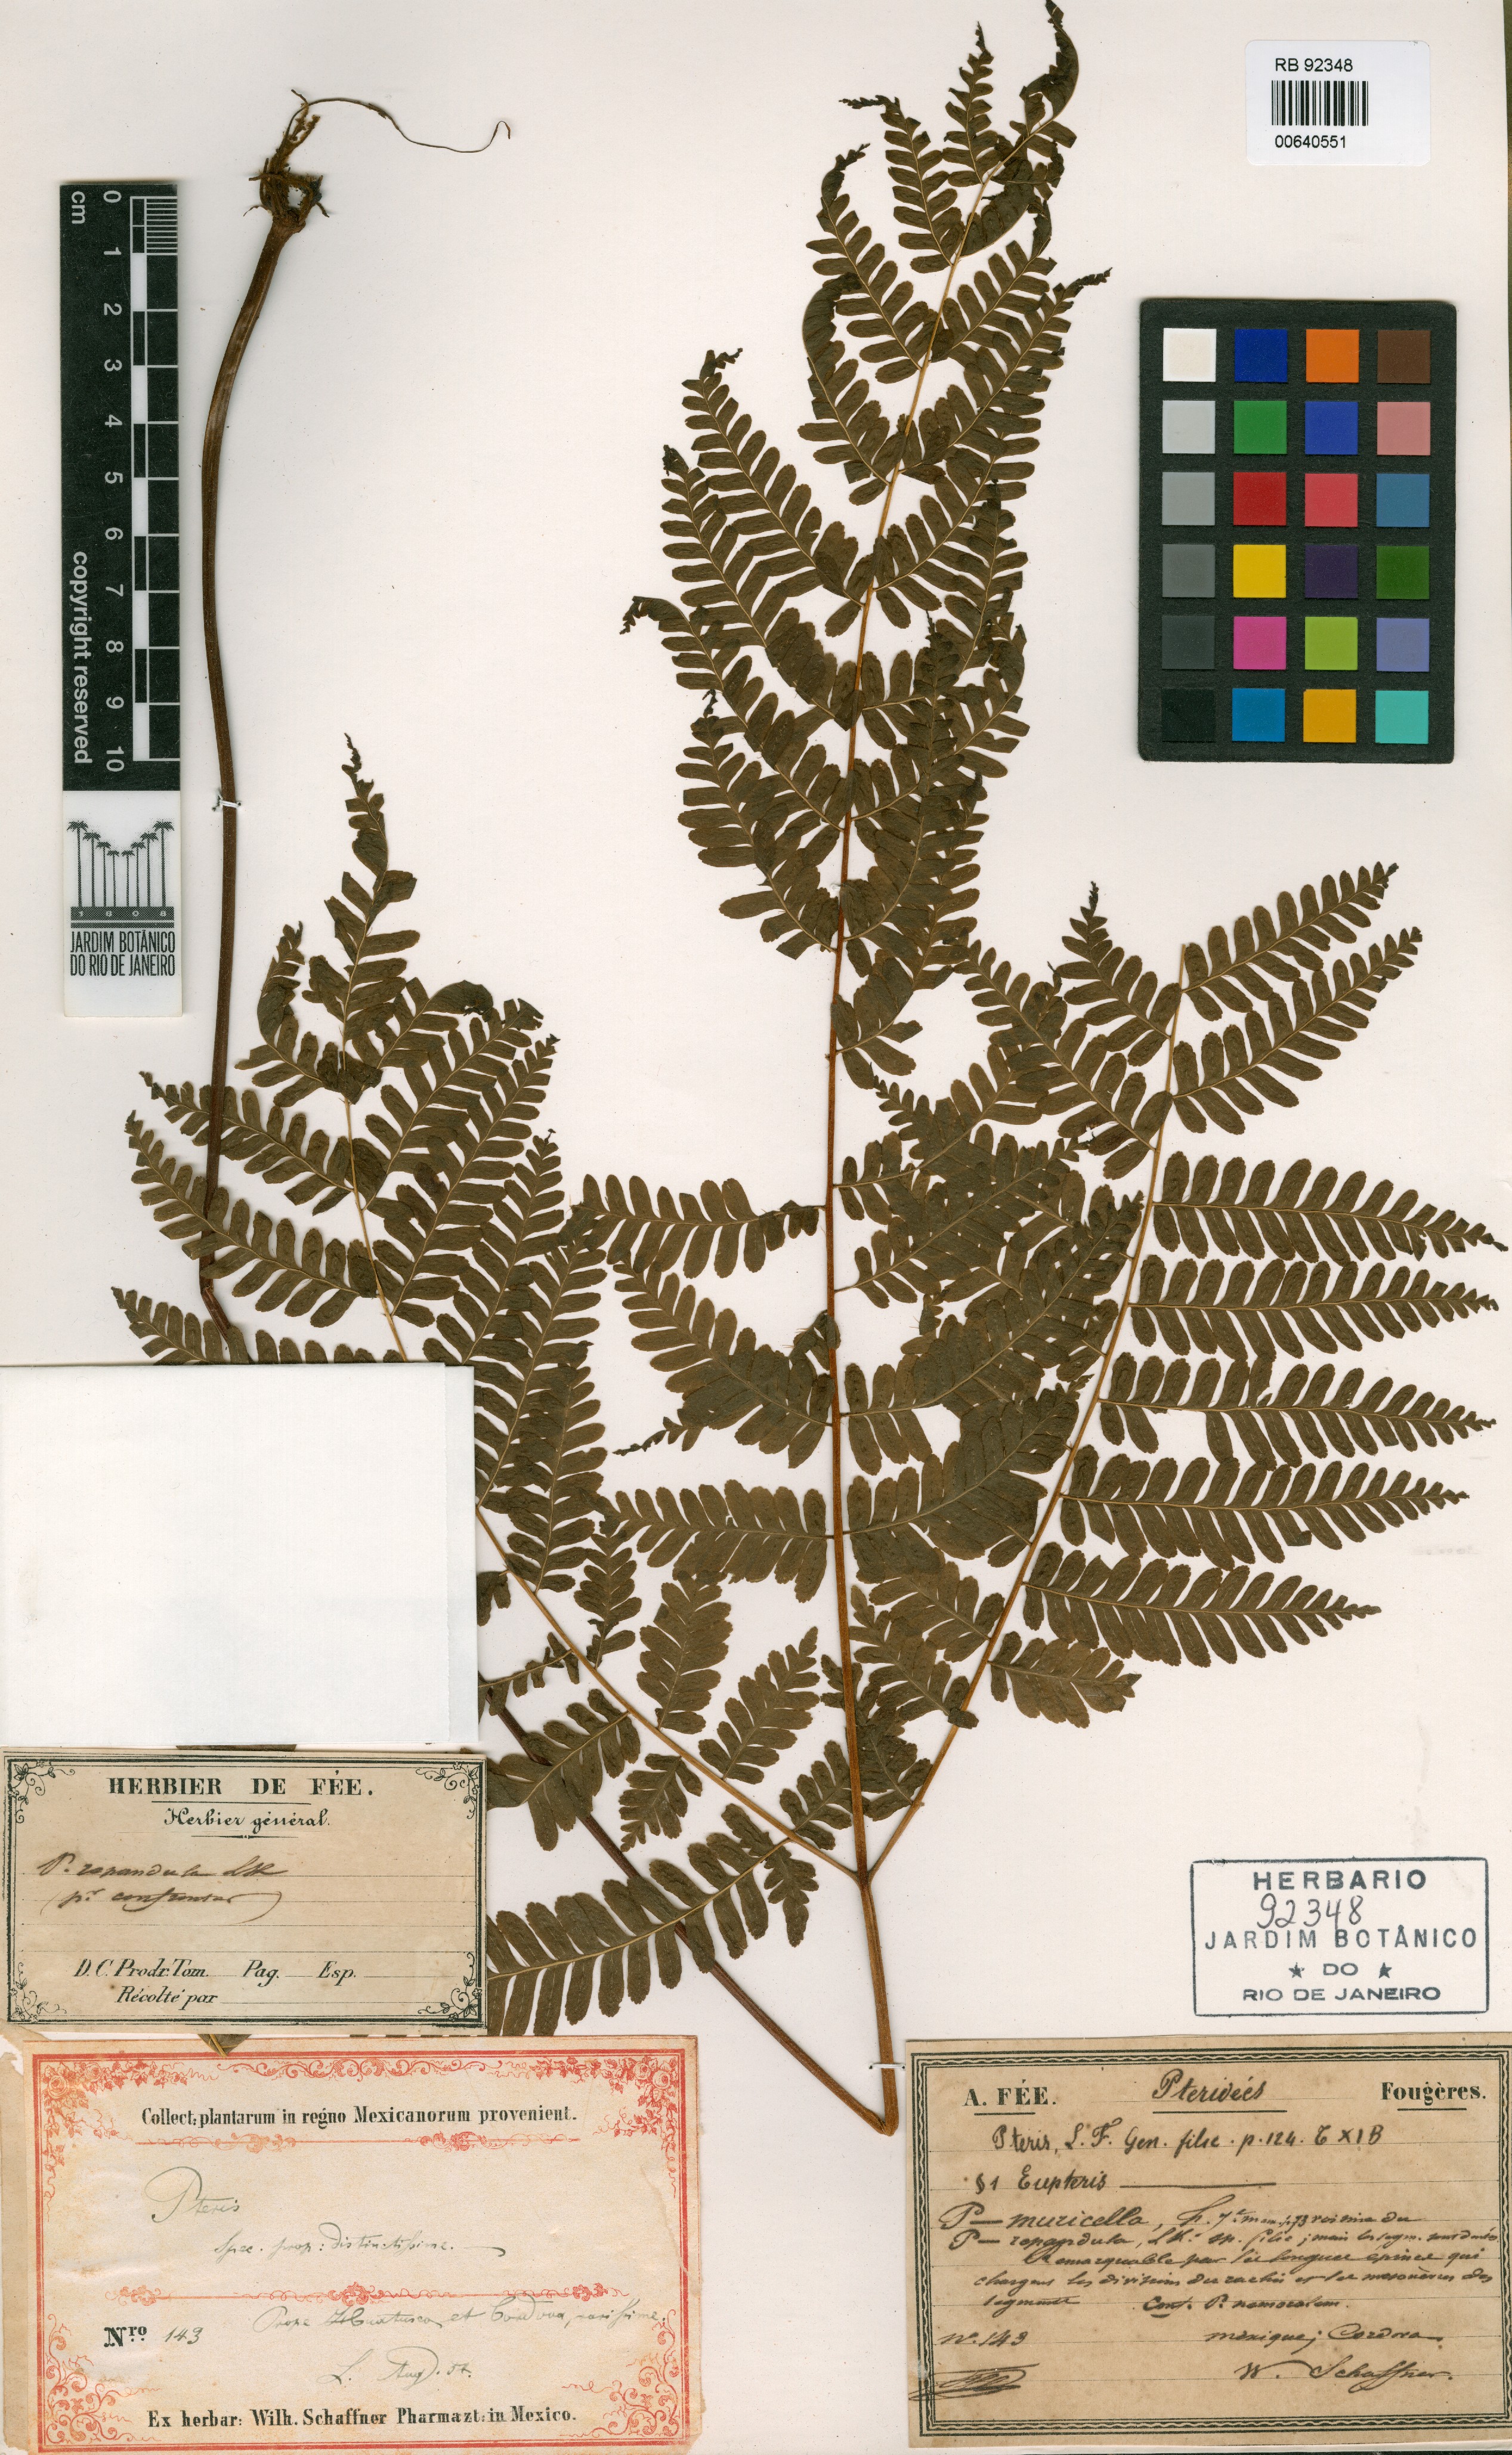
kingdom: Plantae
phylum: Tracheophyta
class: Polypodiopsida
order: Polypodiales
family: Pteridaceae
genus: Pteris
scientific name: Pteris muricella
